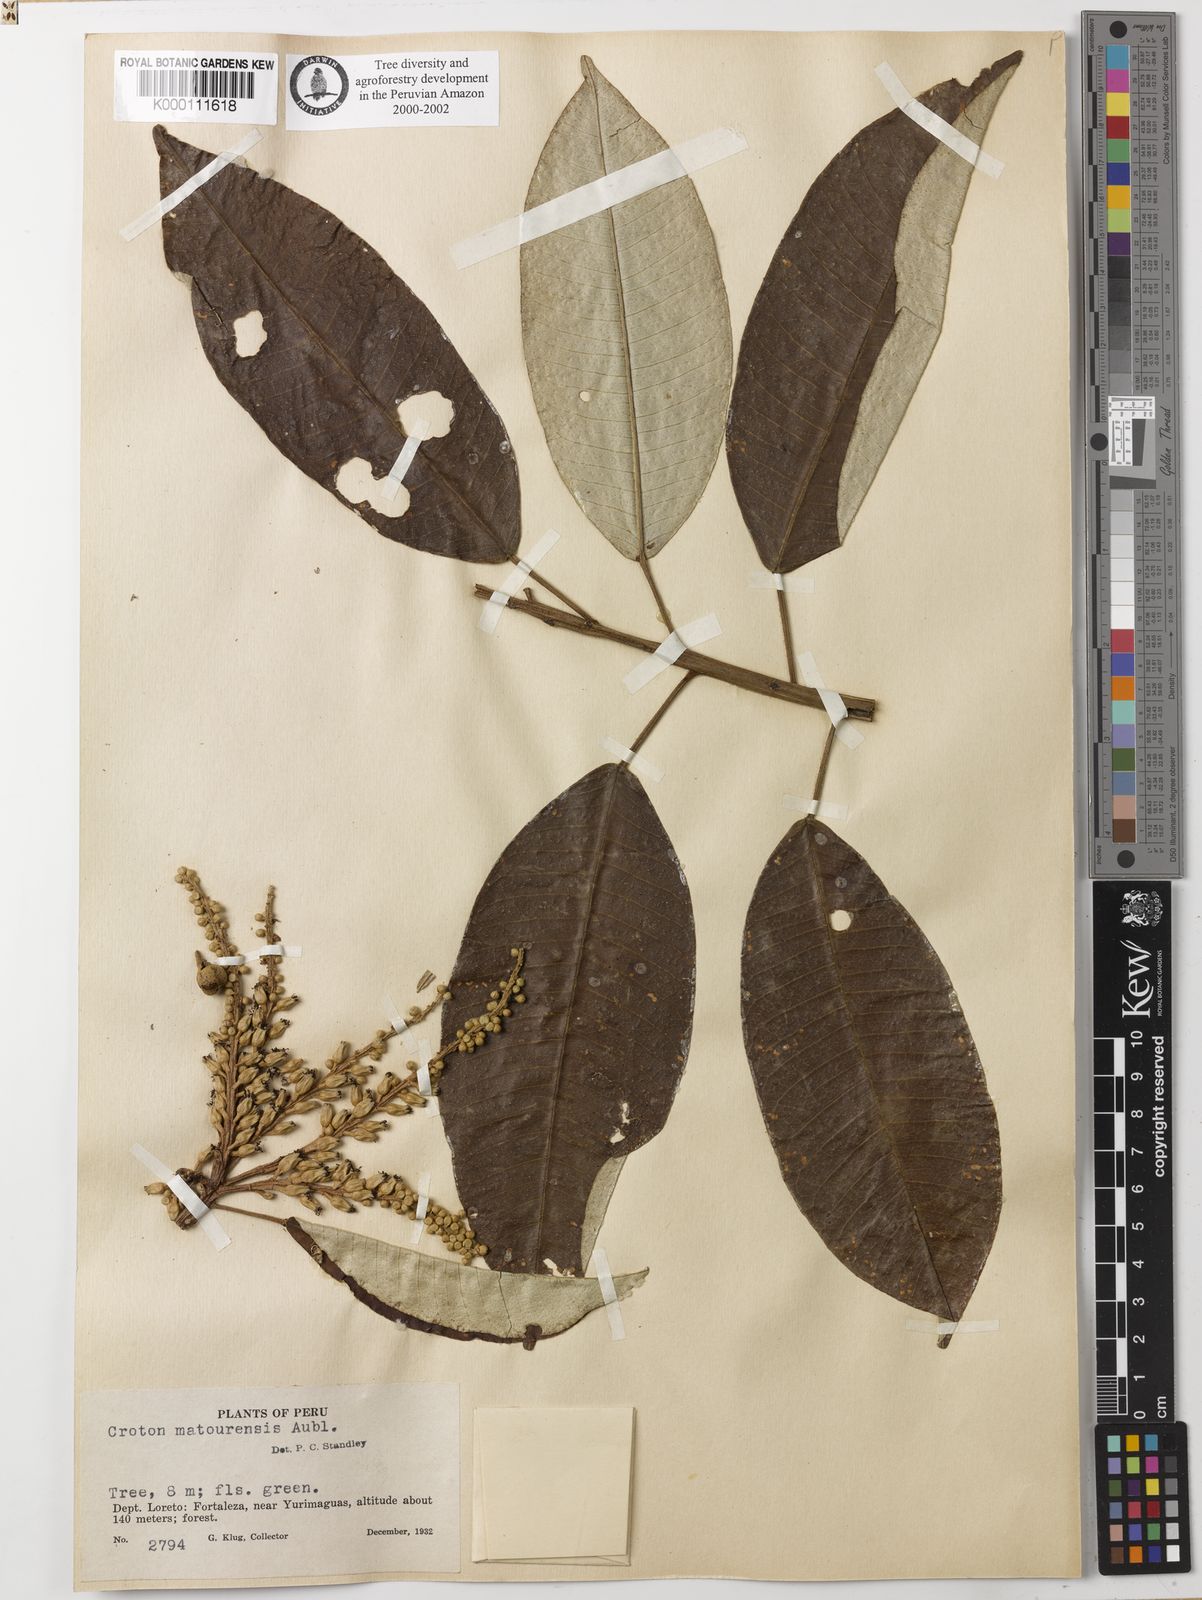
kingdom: Plantae
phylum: Tracheophyta
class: Magnoliopsida
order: Malpighiales
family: Euphorbiaceae
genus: Croton
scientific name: Croton matourensis
